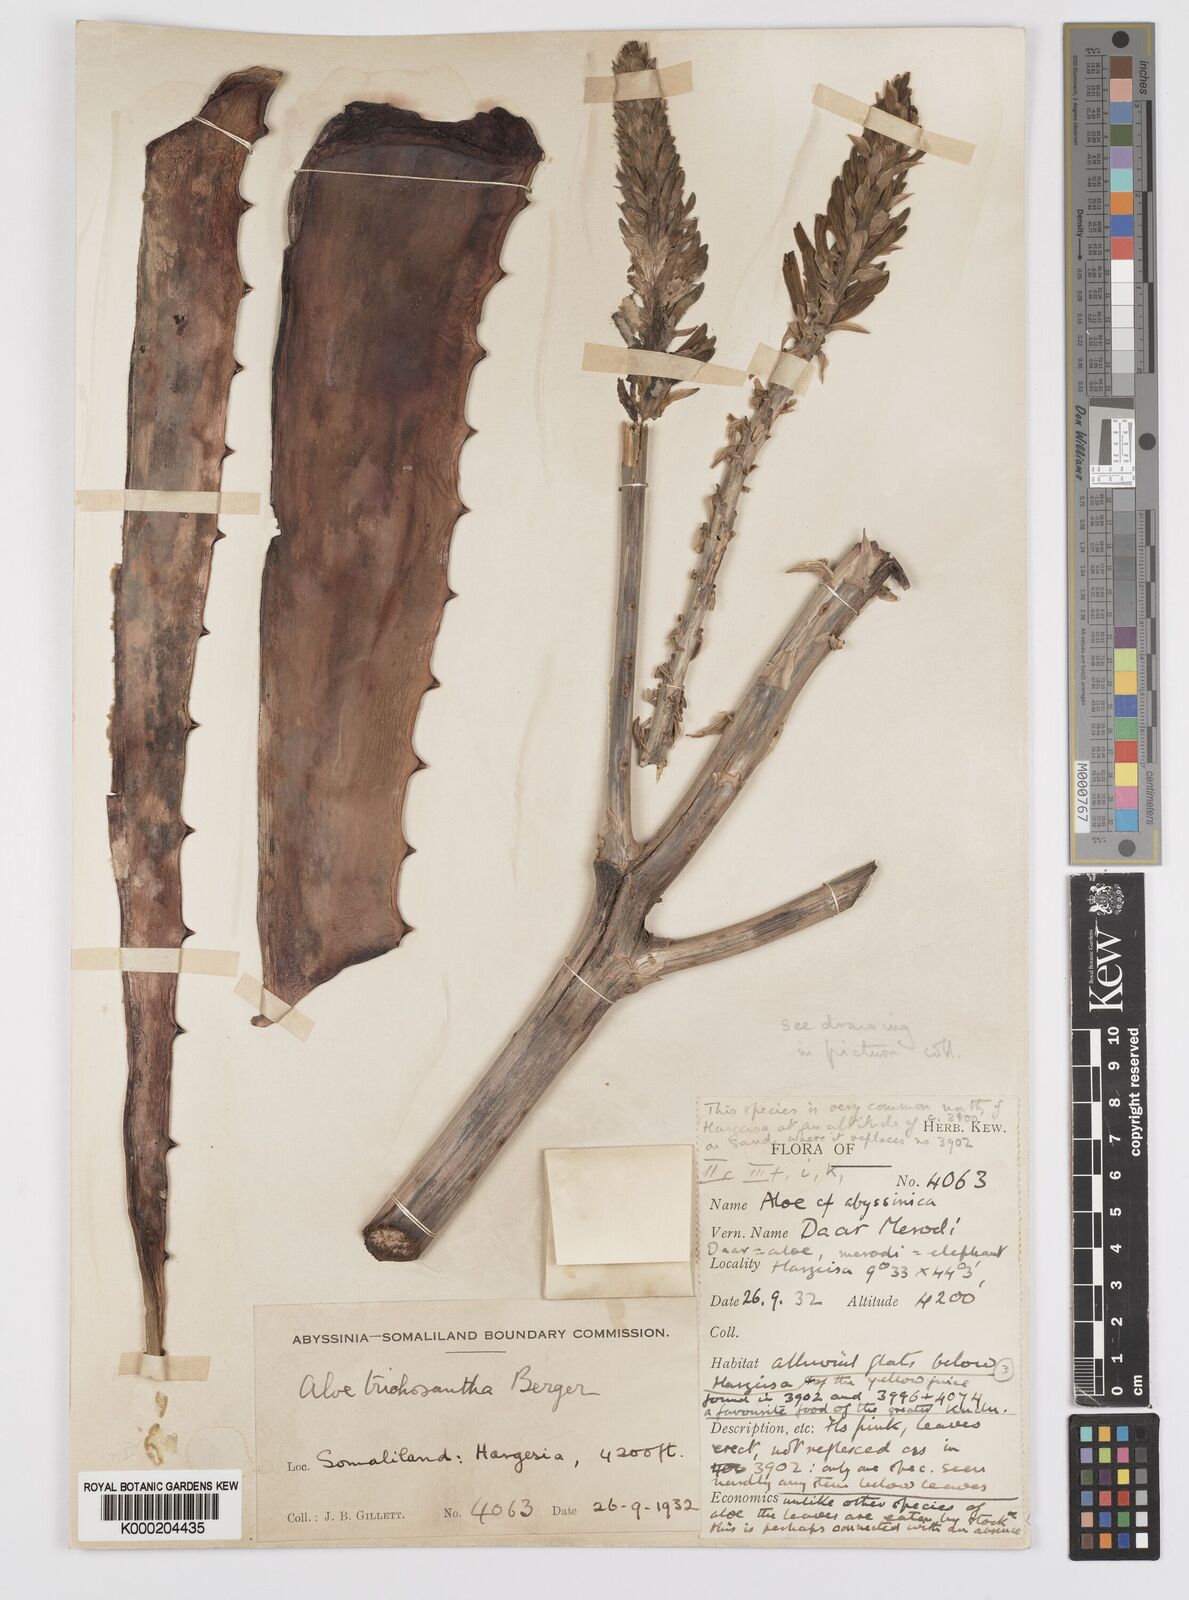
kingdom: Plantae
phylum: Tracheophyta
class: Liliopsida
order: Asparagales
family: Asphodelaceae
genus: Aloe
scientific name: Aloe rigens
